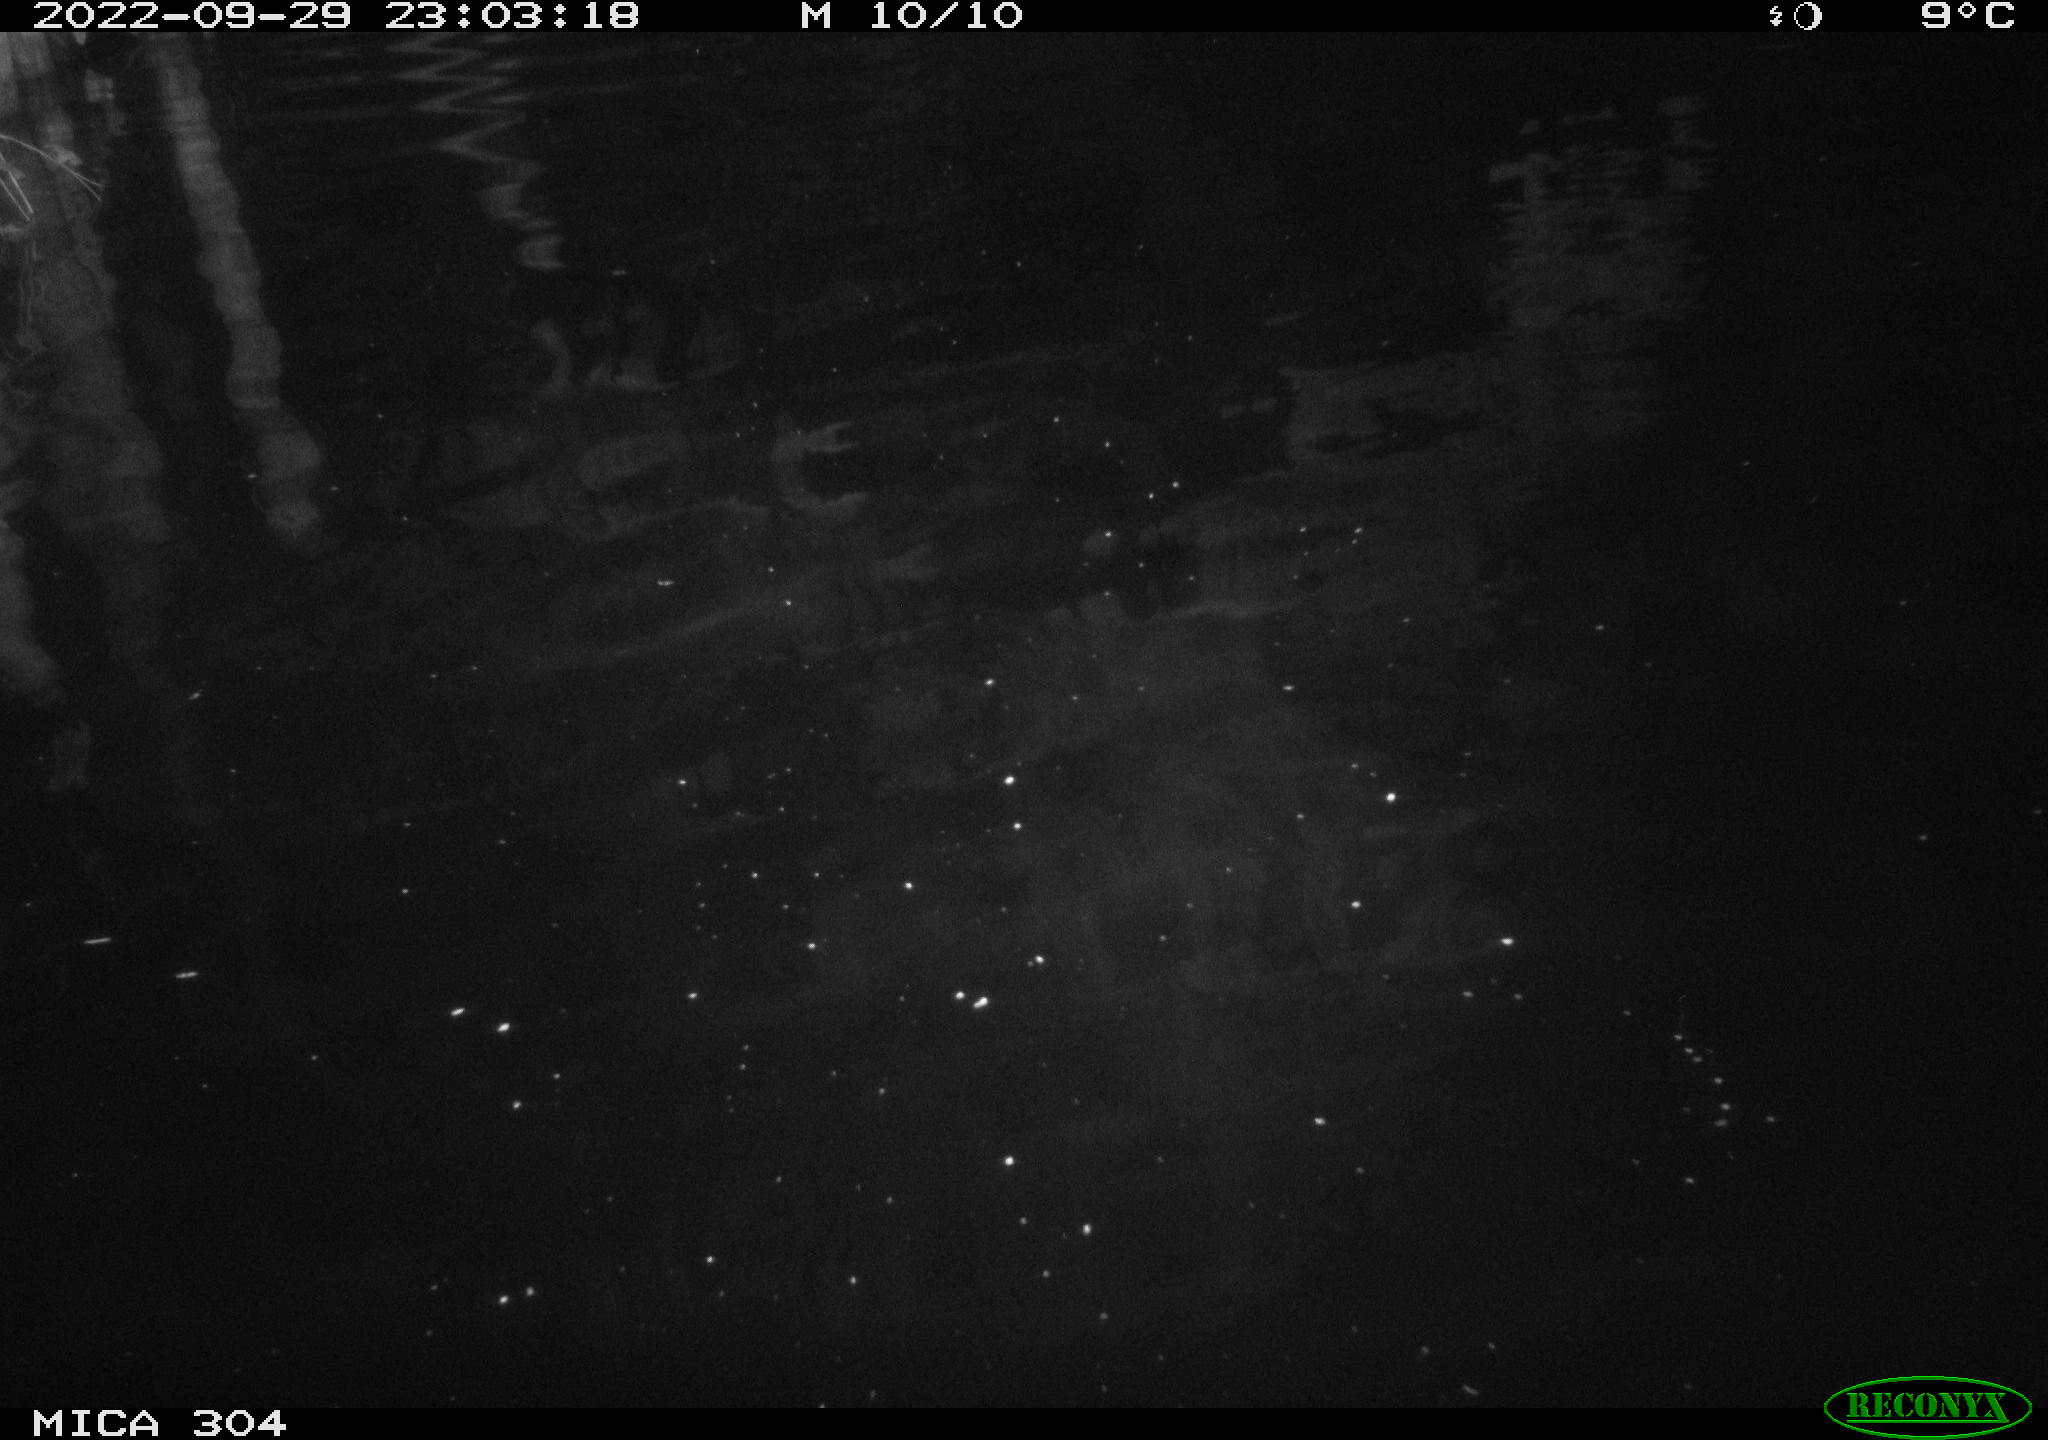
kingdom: Animalia
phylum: Chordata
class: Mammalia
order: Rodentia
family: Cricetidae
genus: Ondatra
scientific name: Ondatra zibethicus
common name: Muskrat
